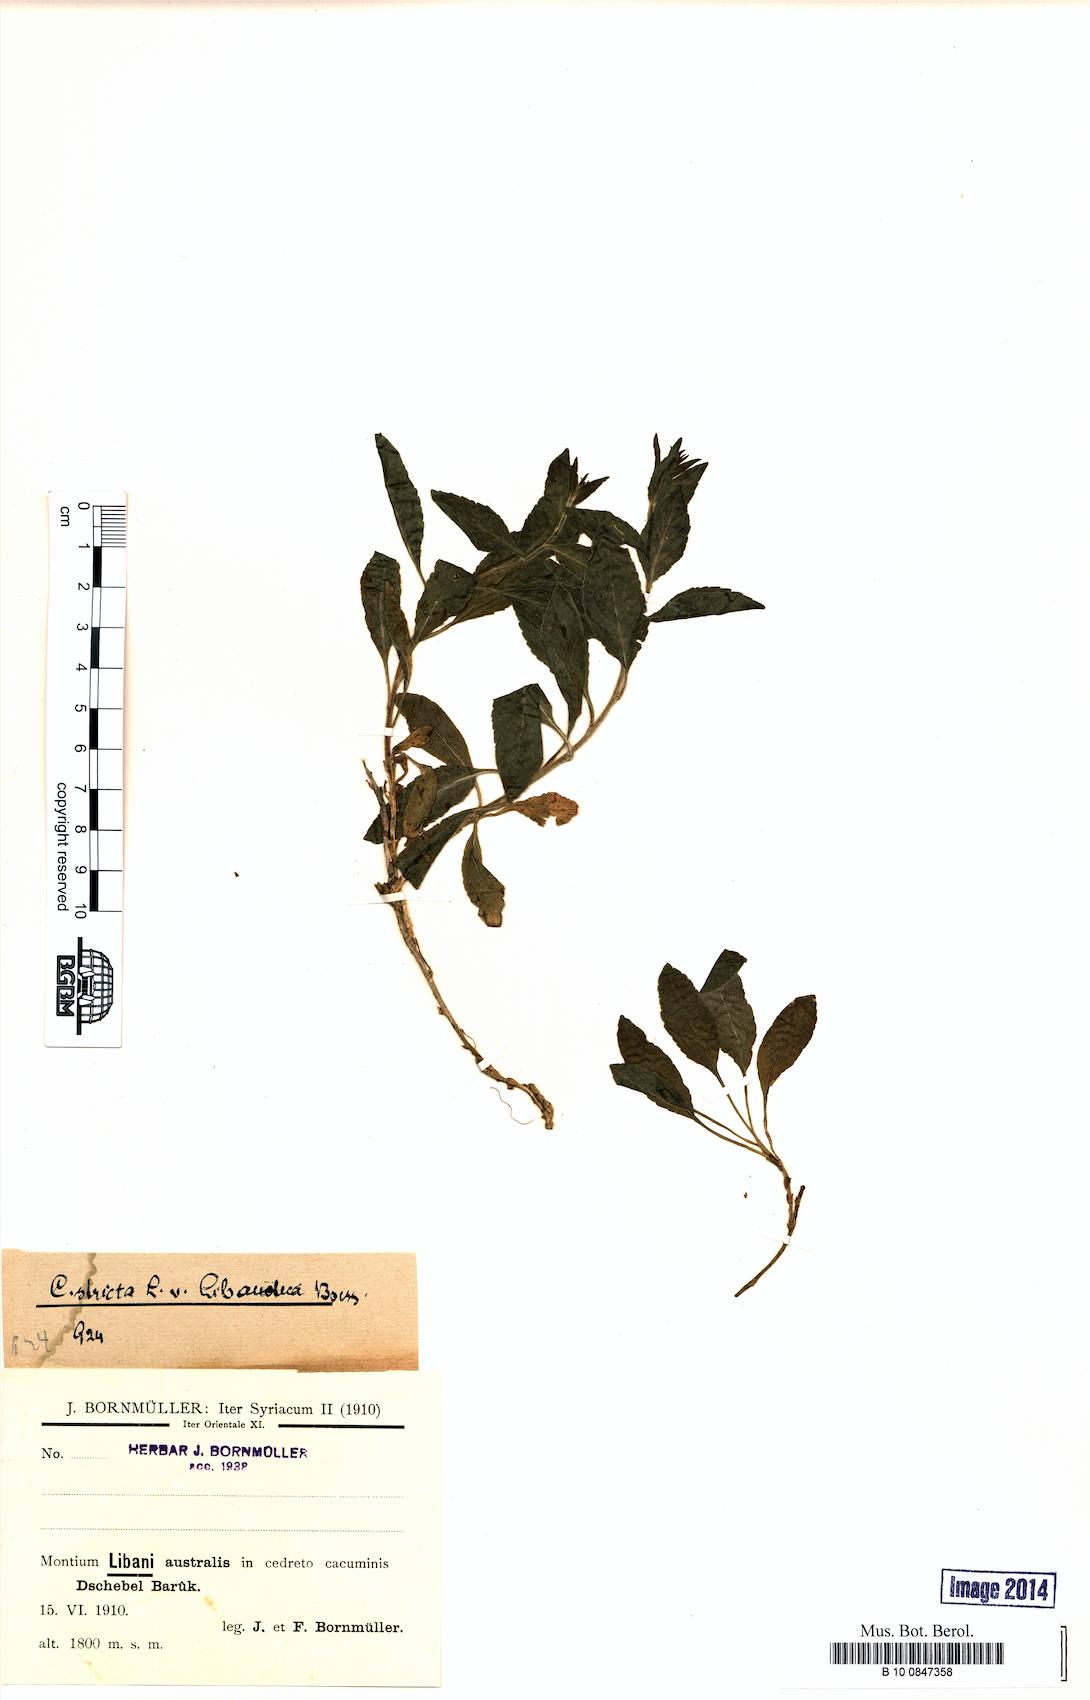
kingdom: Plantae
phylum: Tracheophyta
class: Magnoliopsida
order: Asterales
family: Campanulaceae
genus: Campanula
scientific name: Campanula stricta
